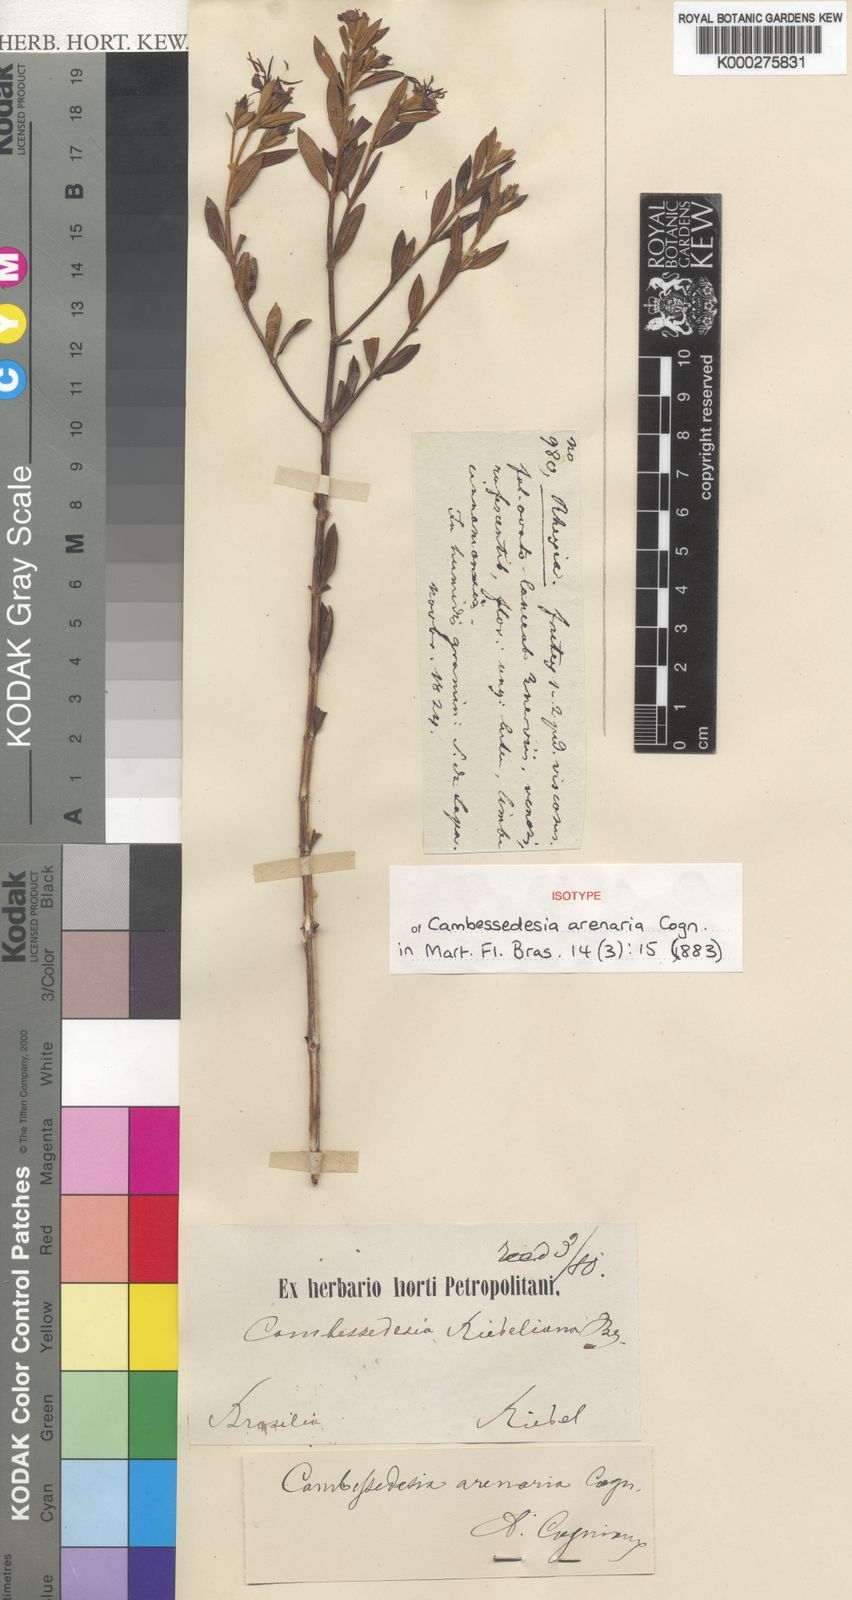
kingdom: Plantae
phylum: Tracheophyta
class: Magnoliopsida
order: Myrtales
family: Melastomataceae
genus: Cambessedesia
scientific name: Cambessedesia arenaria
